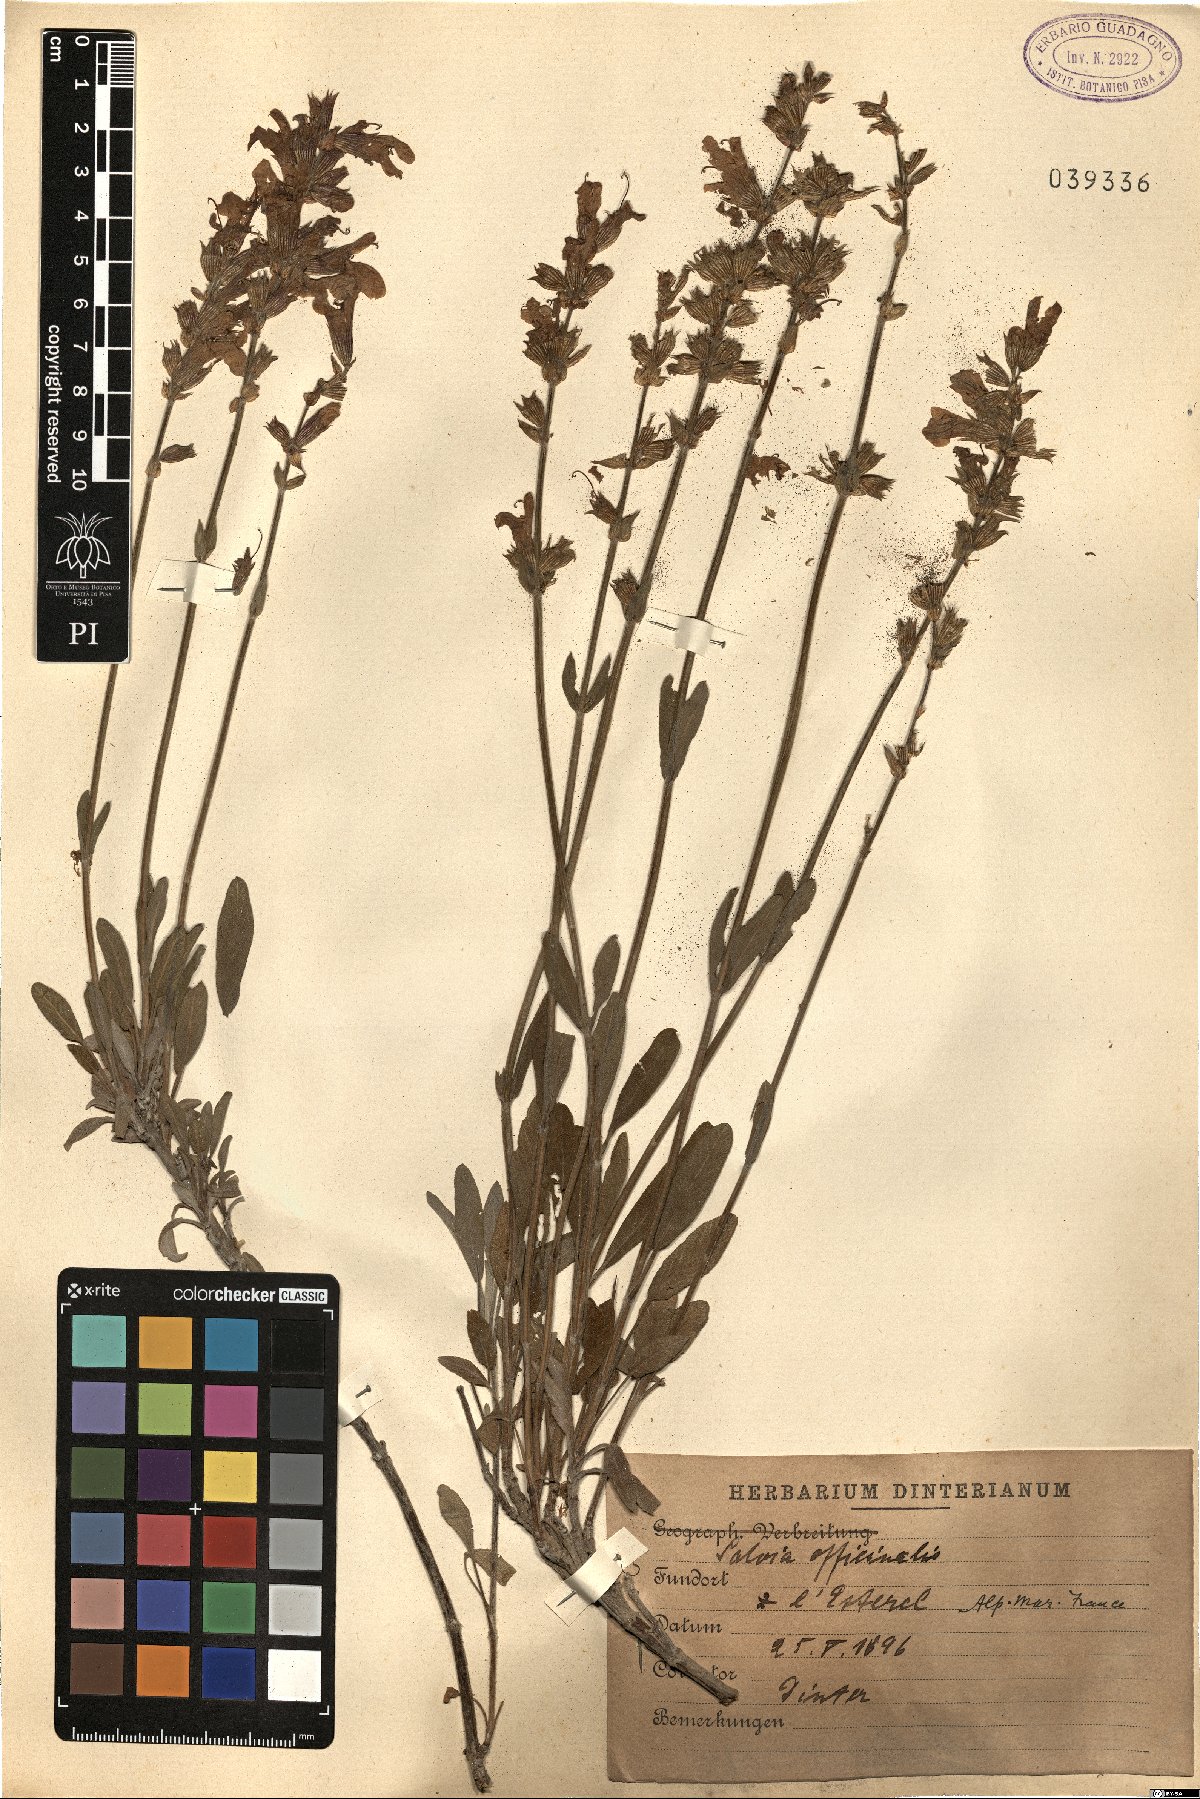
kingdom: Plantae
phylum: Tracheophyta
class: Magnoliopsida
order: Lamiales
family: Lamiaceae
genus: Salvia
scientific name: Salvia officinalis
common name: Sage
